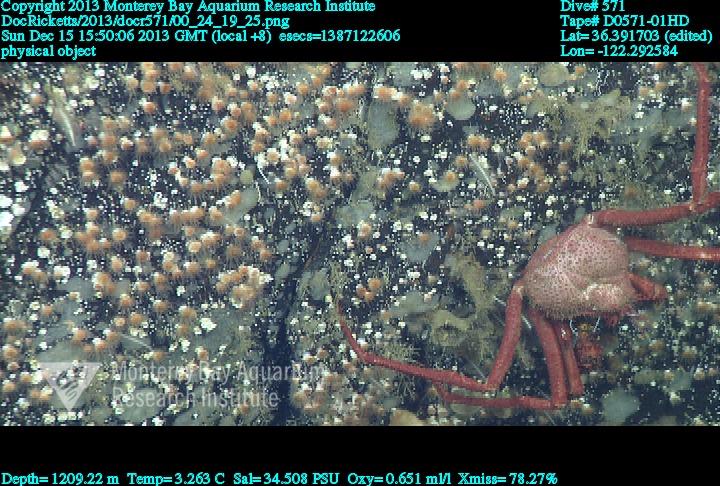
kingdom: Animalia
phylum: Cnidaria
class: Anthozoa
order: Scleractinia
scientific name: Scleractinia
